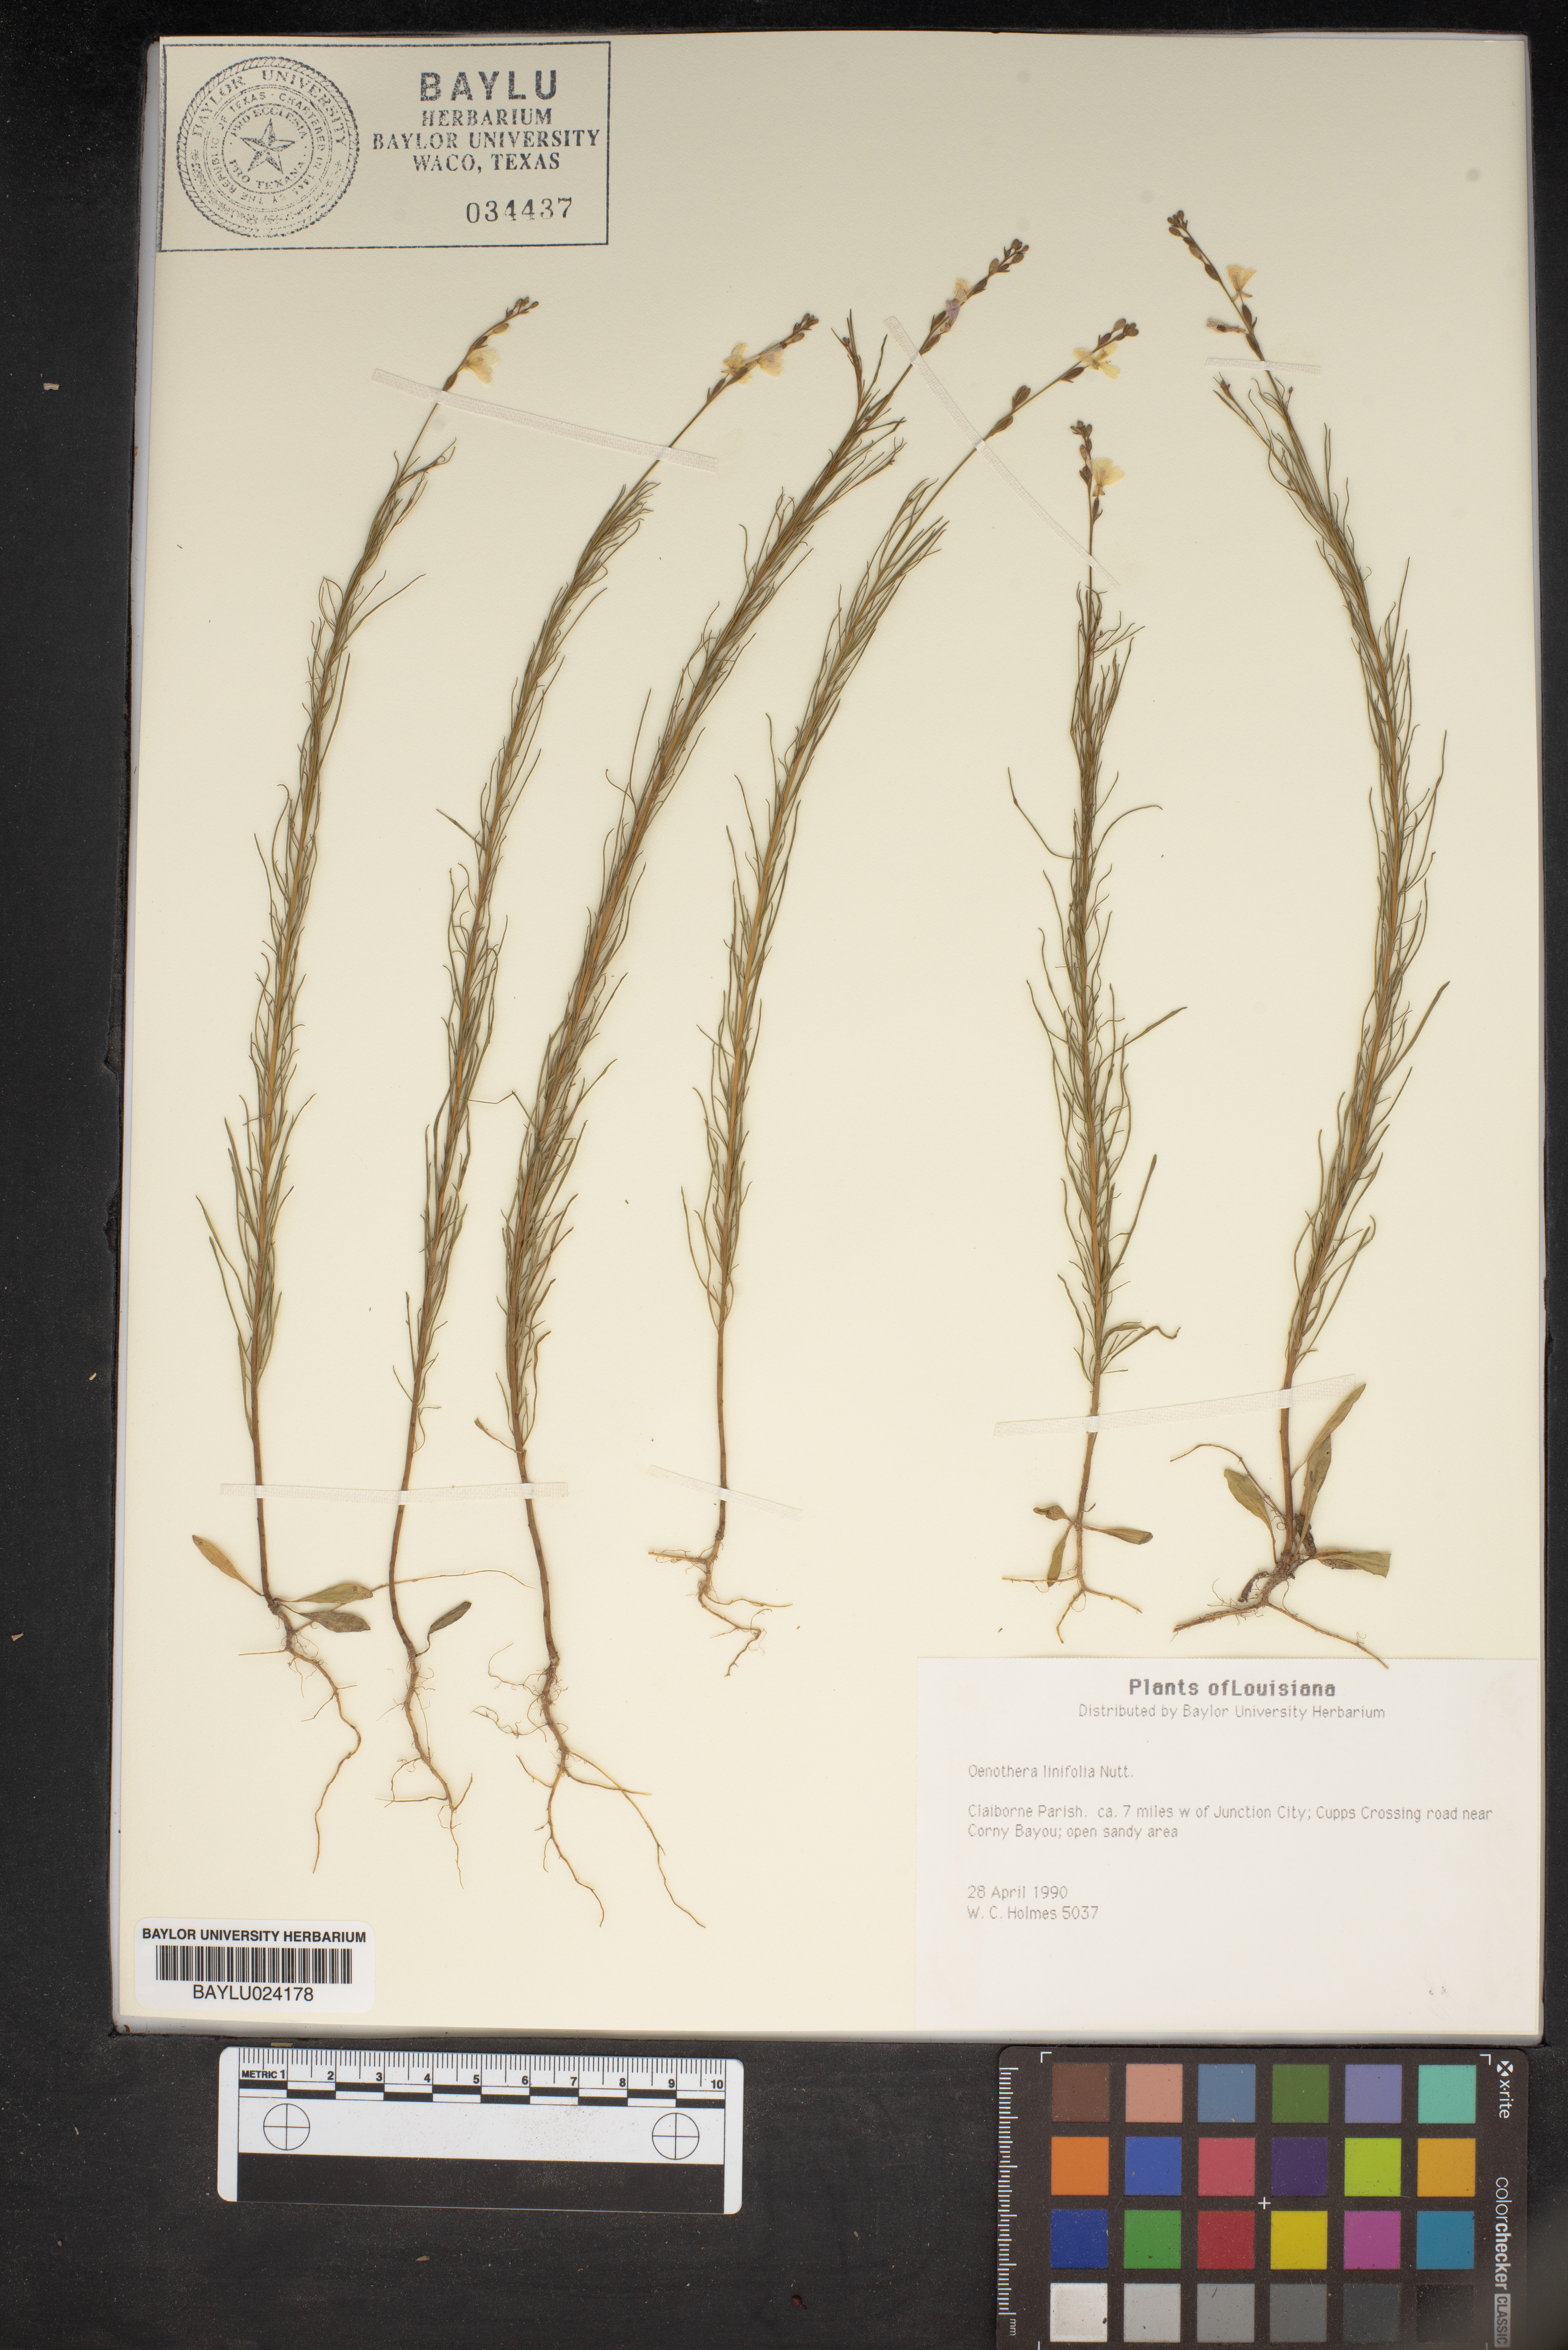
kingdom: Plantae
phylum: Tracheophyta
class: Magnoliopsida
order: Myrtales
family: Onagraceae
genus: Oenothera
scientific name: Oenothera linifolia
